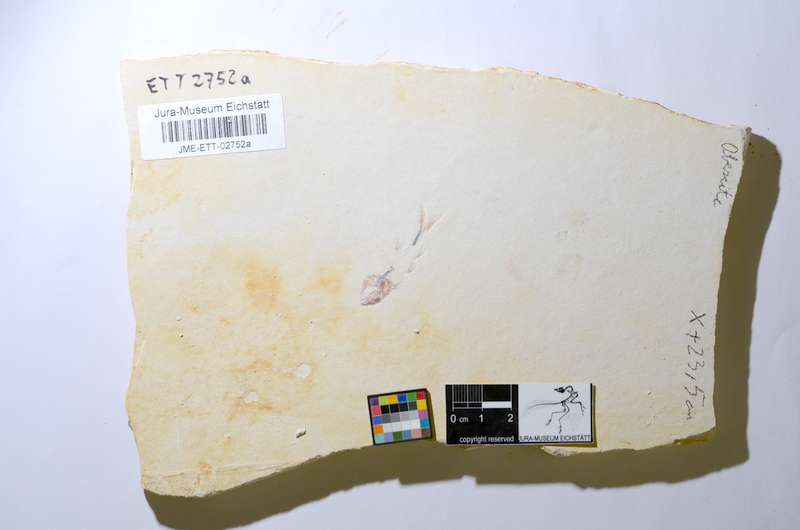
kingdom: Animalia
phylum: Chordata
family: Ascalaboidae
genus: Ebertichthys
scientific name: Ebertichthys ettlingensis
